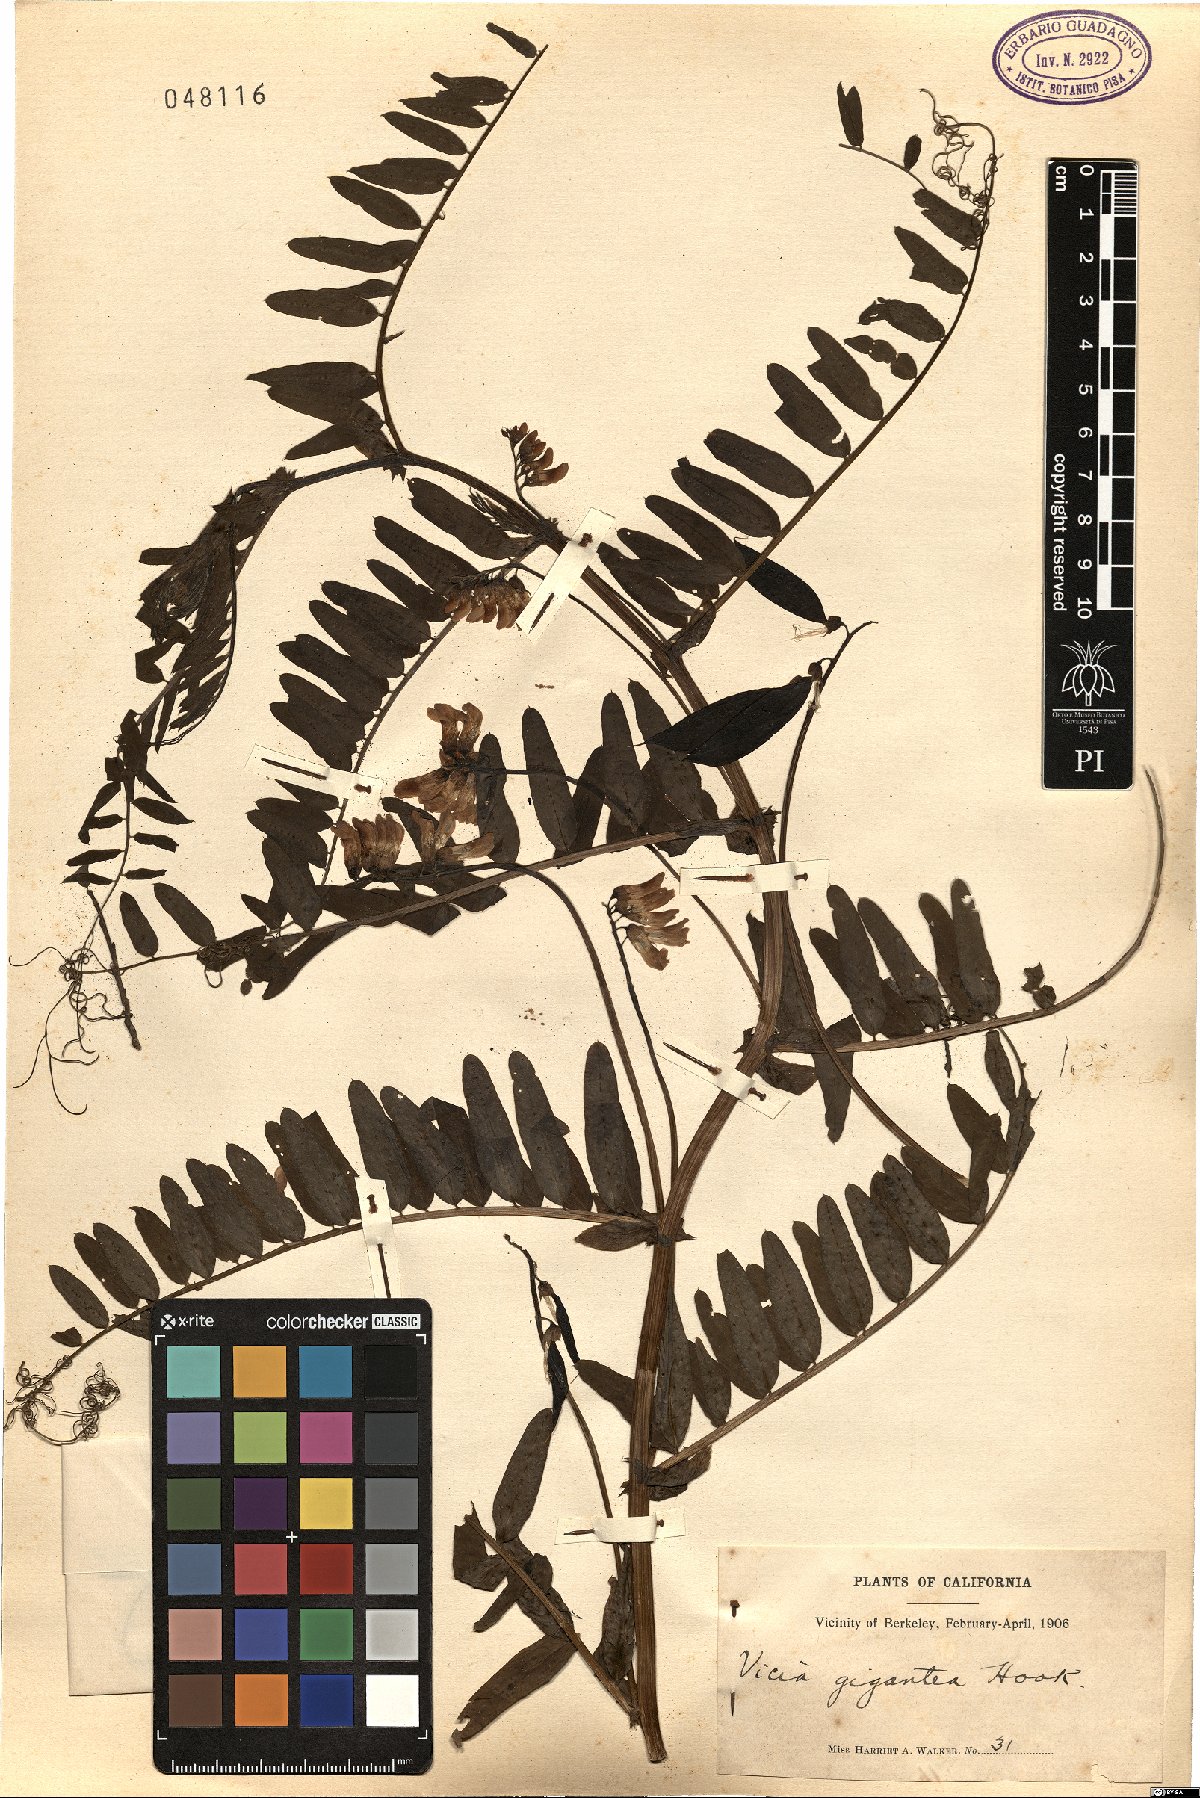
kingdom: Plantae
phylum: Tracheophyta
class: Magnoliopsida
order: Fabales
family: Fabaceae
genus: Vicia
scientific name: Vicia nigricans
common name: Black vetch
